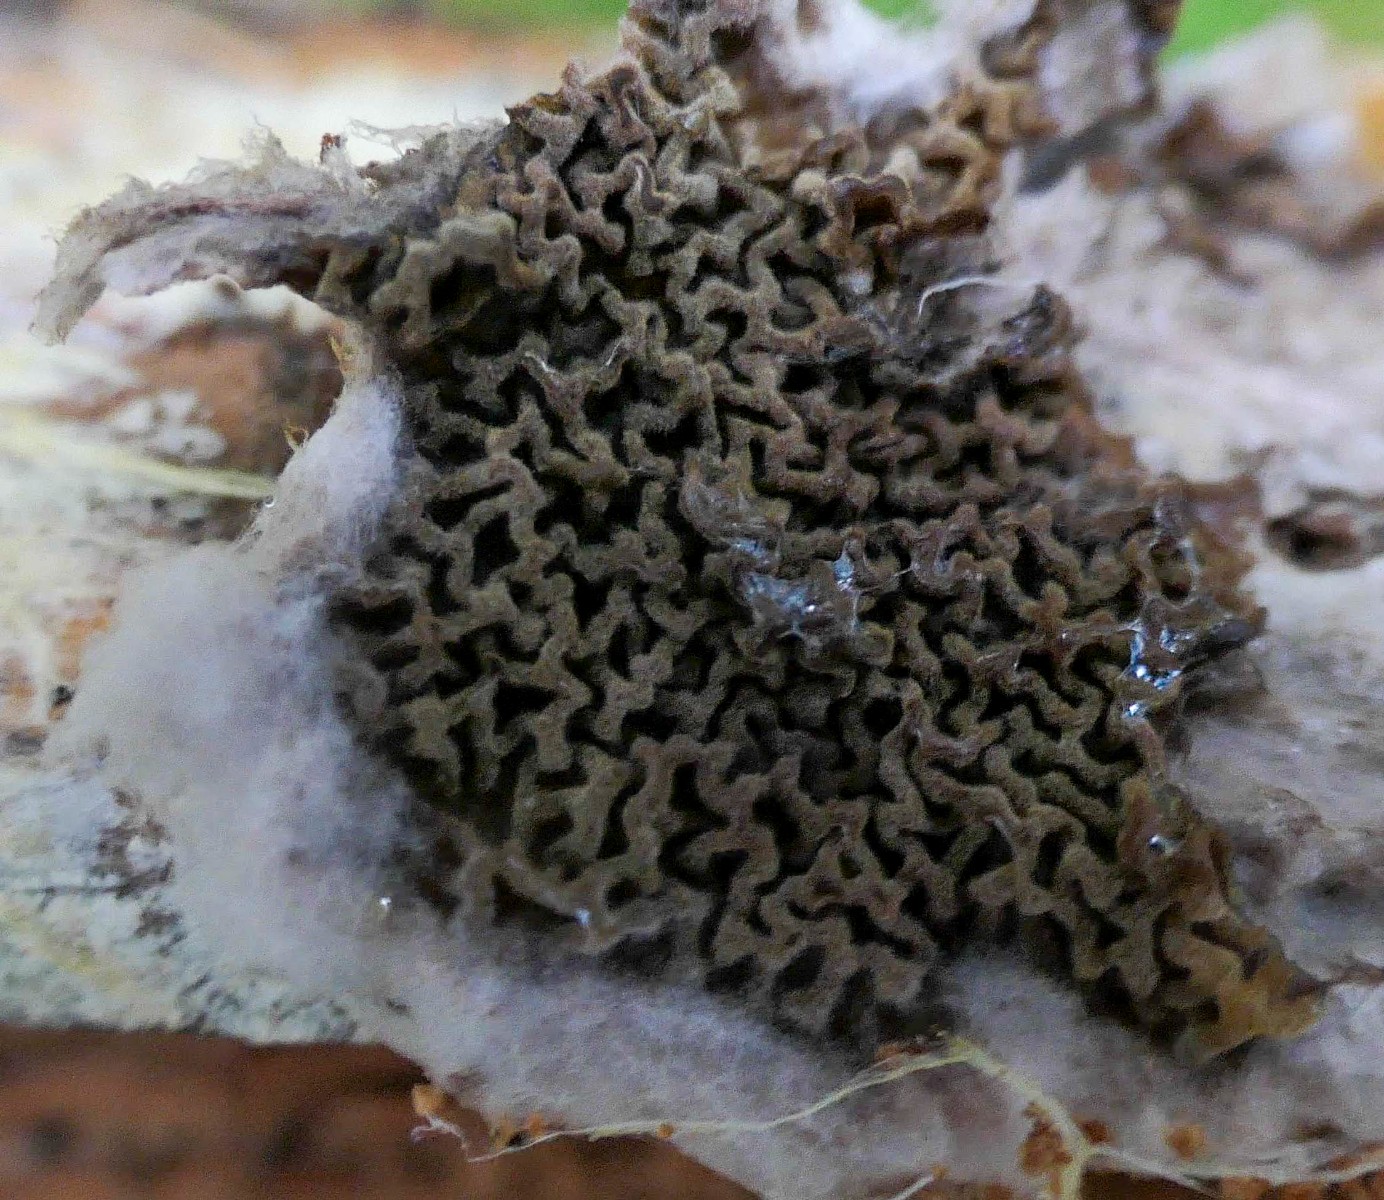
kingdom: Fungi
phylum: Basidiomycota
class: Agaricomycetes
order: Boletales
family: Serpulaceae
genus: Serpula
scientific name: Serpula himantioides
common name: tyndkødet hussvamp
